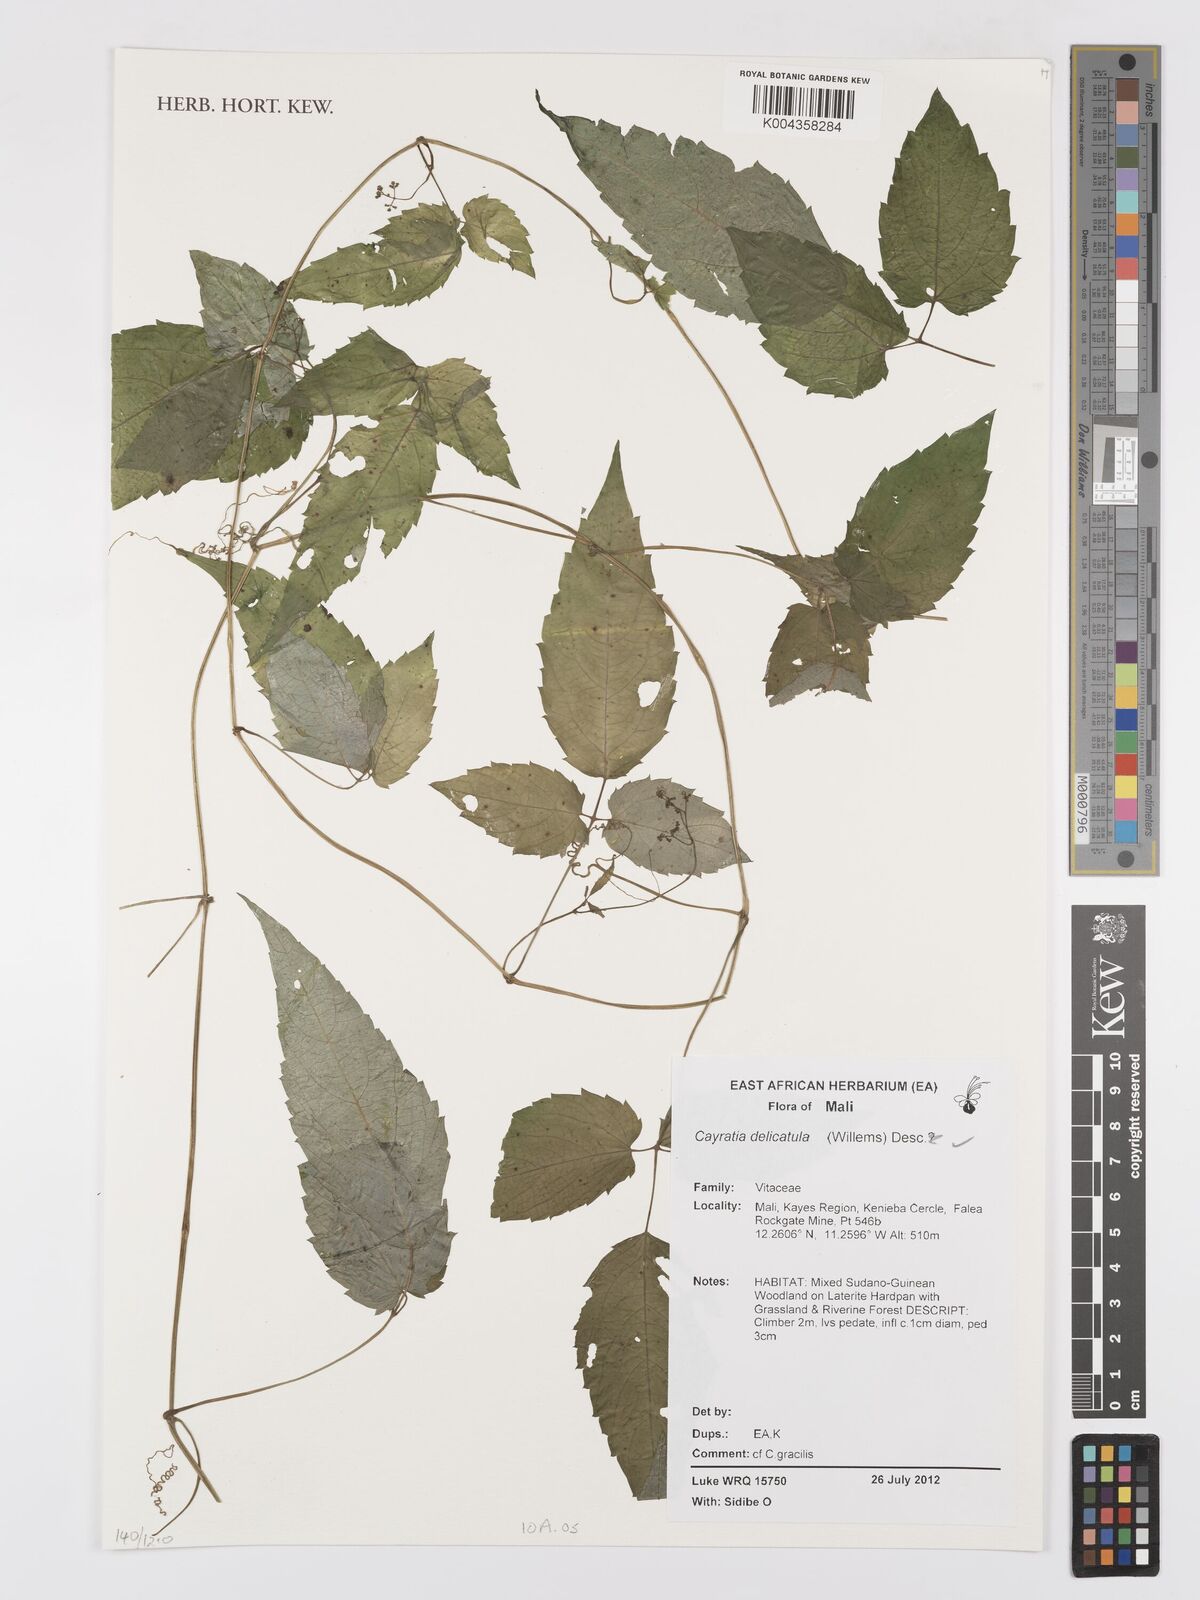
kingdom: Plantae
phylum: Tracheophyta
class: Magnoliopsida
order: Vitales
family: Vitaceae
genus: Afrocayratia
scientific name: Afrocayratia delicatula
